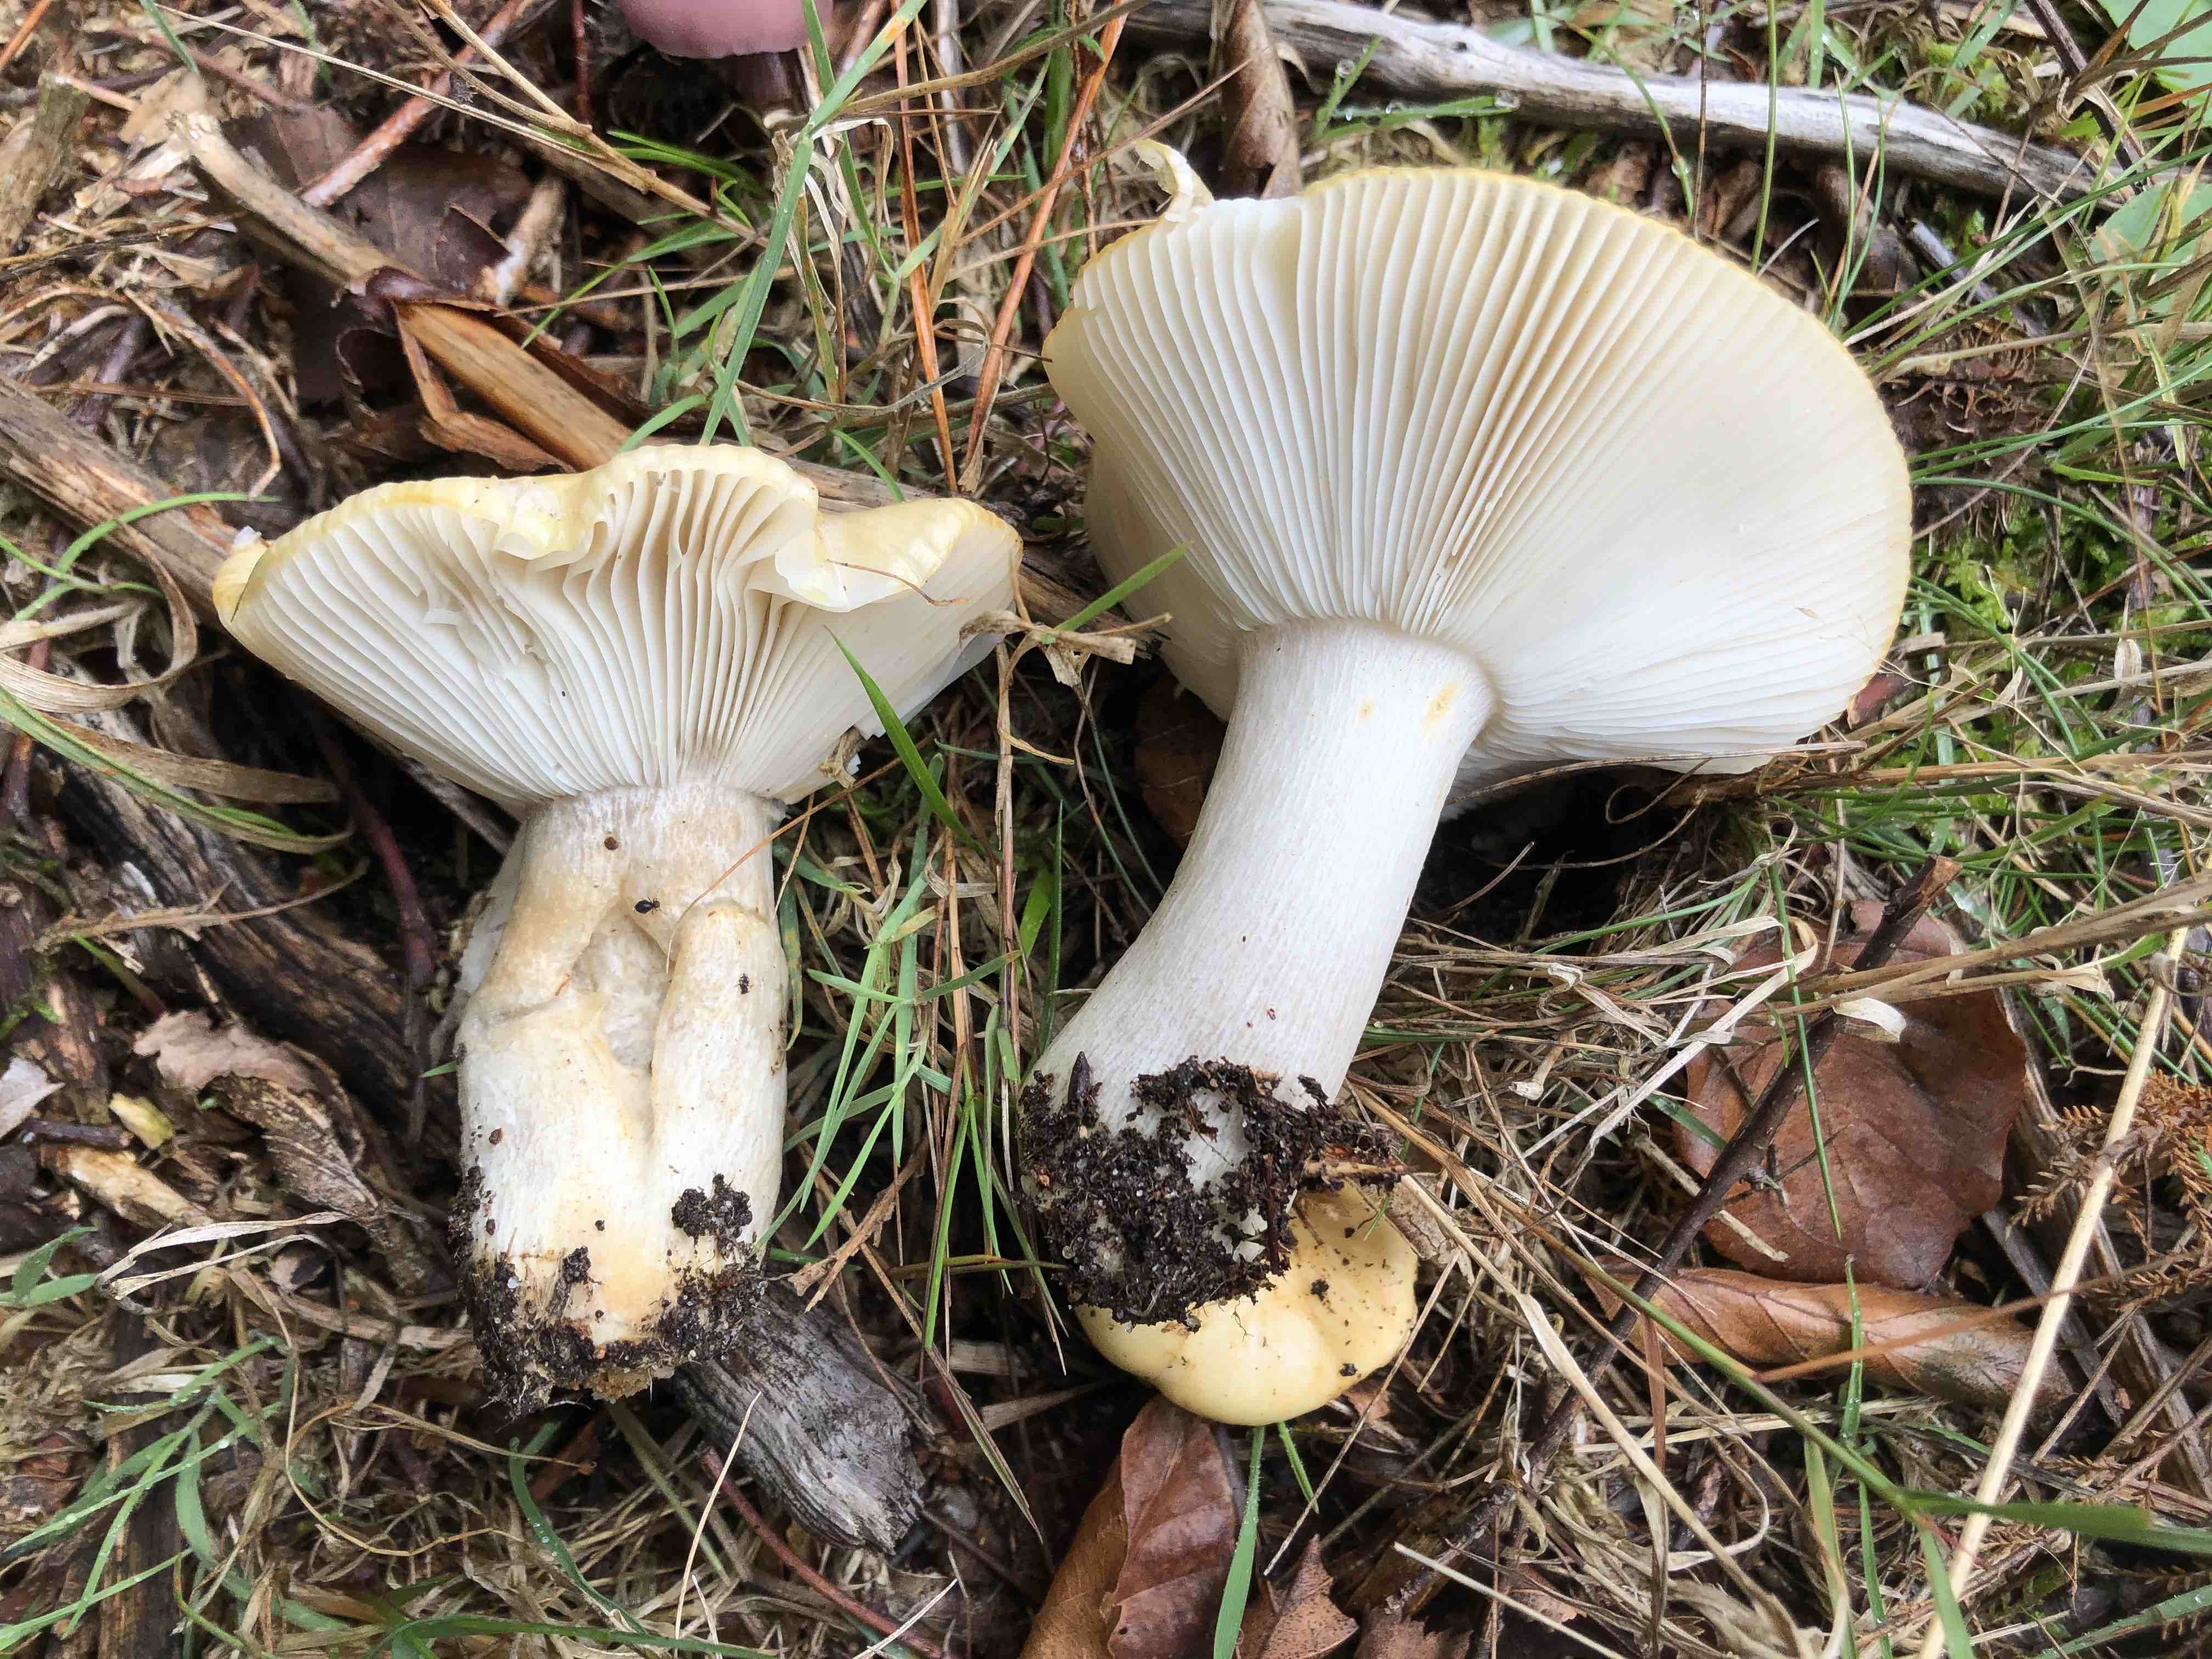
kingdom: Fungi
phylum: Basidiomycota
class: Agaricomycetes
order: Russulales
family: Russulaceae
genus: Russula
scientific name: Russula ochroleuca
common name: okkergul skørhat
